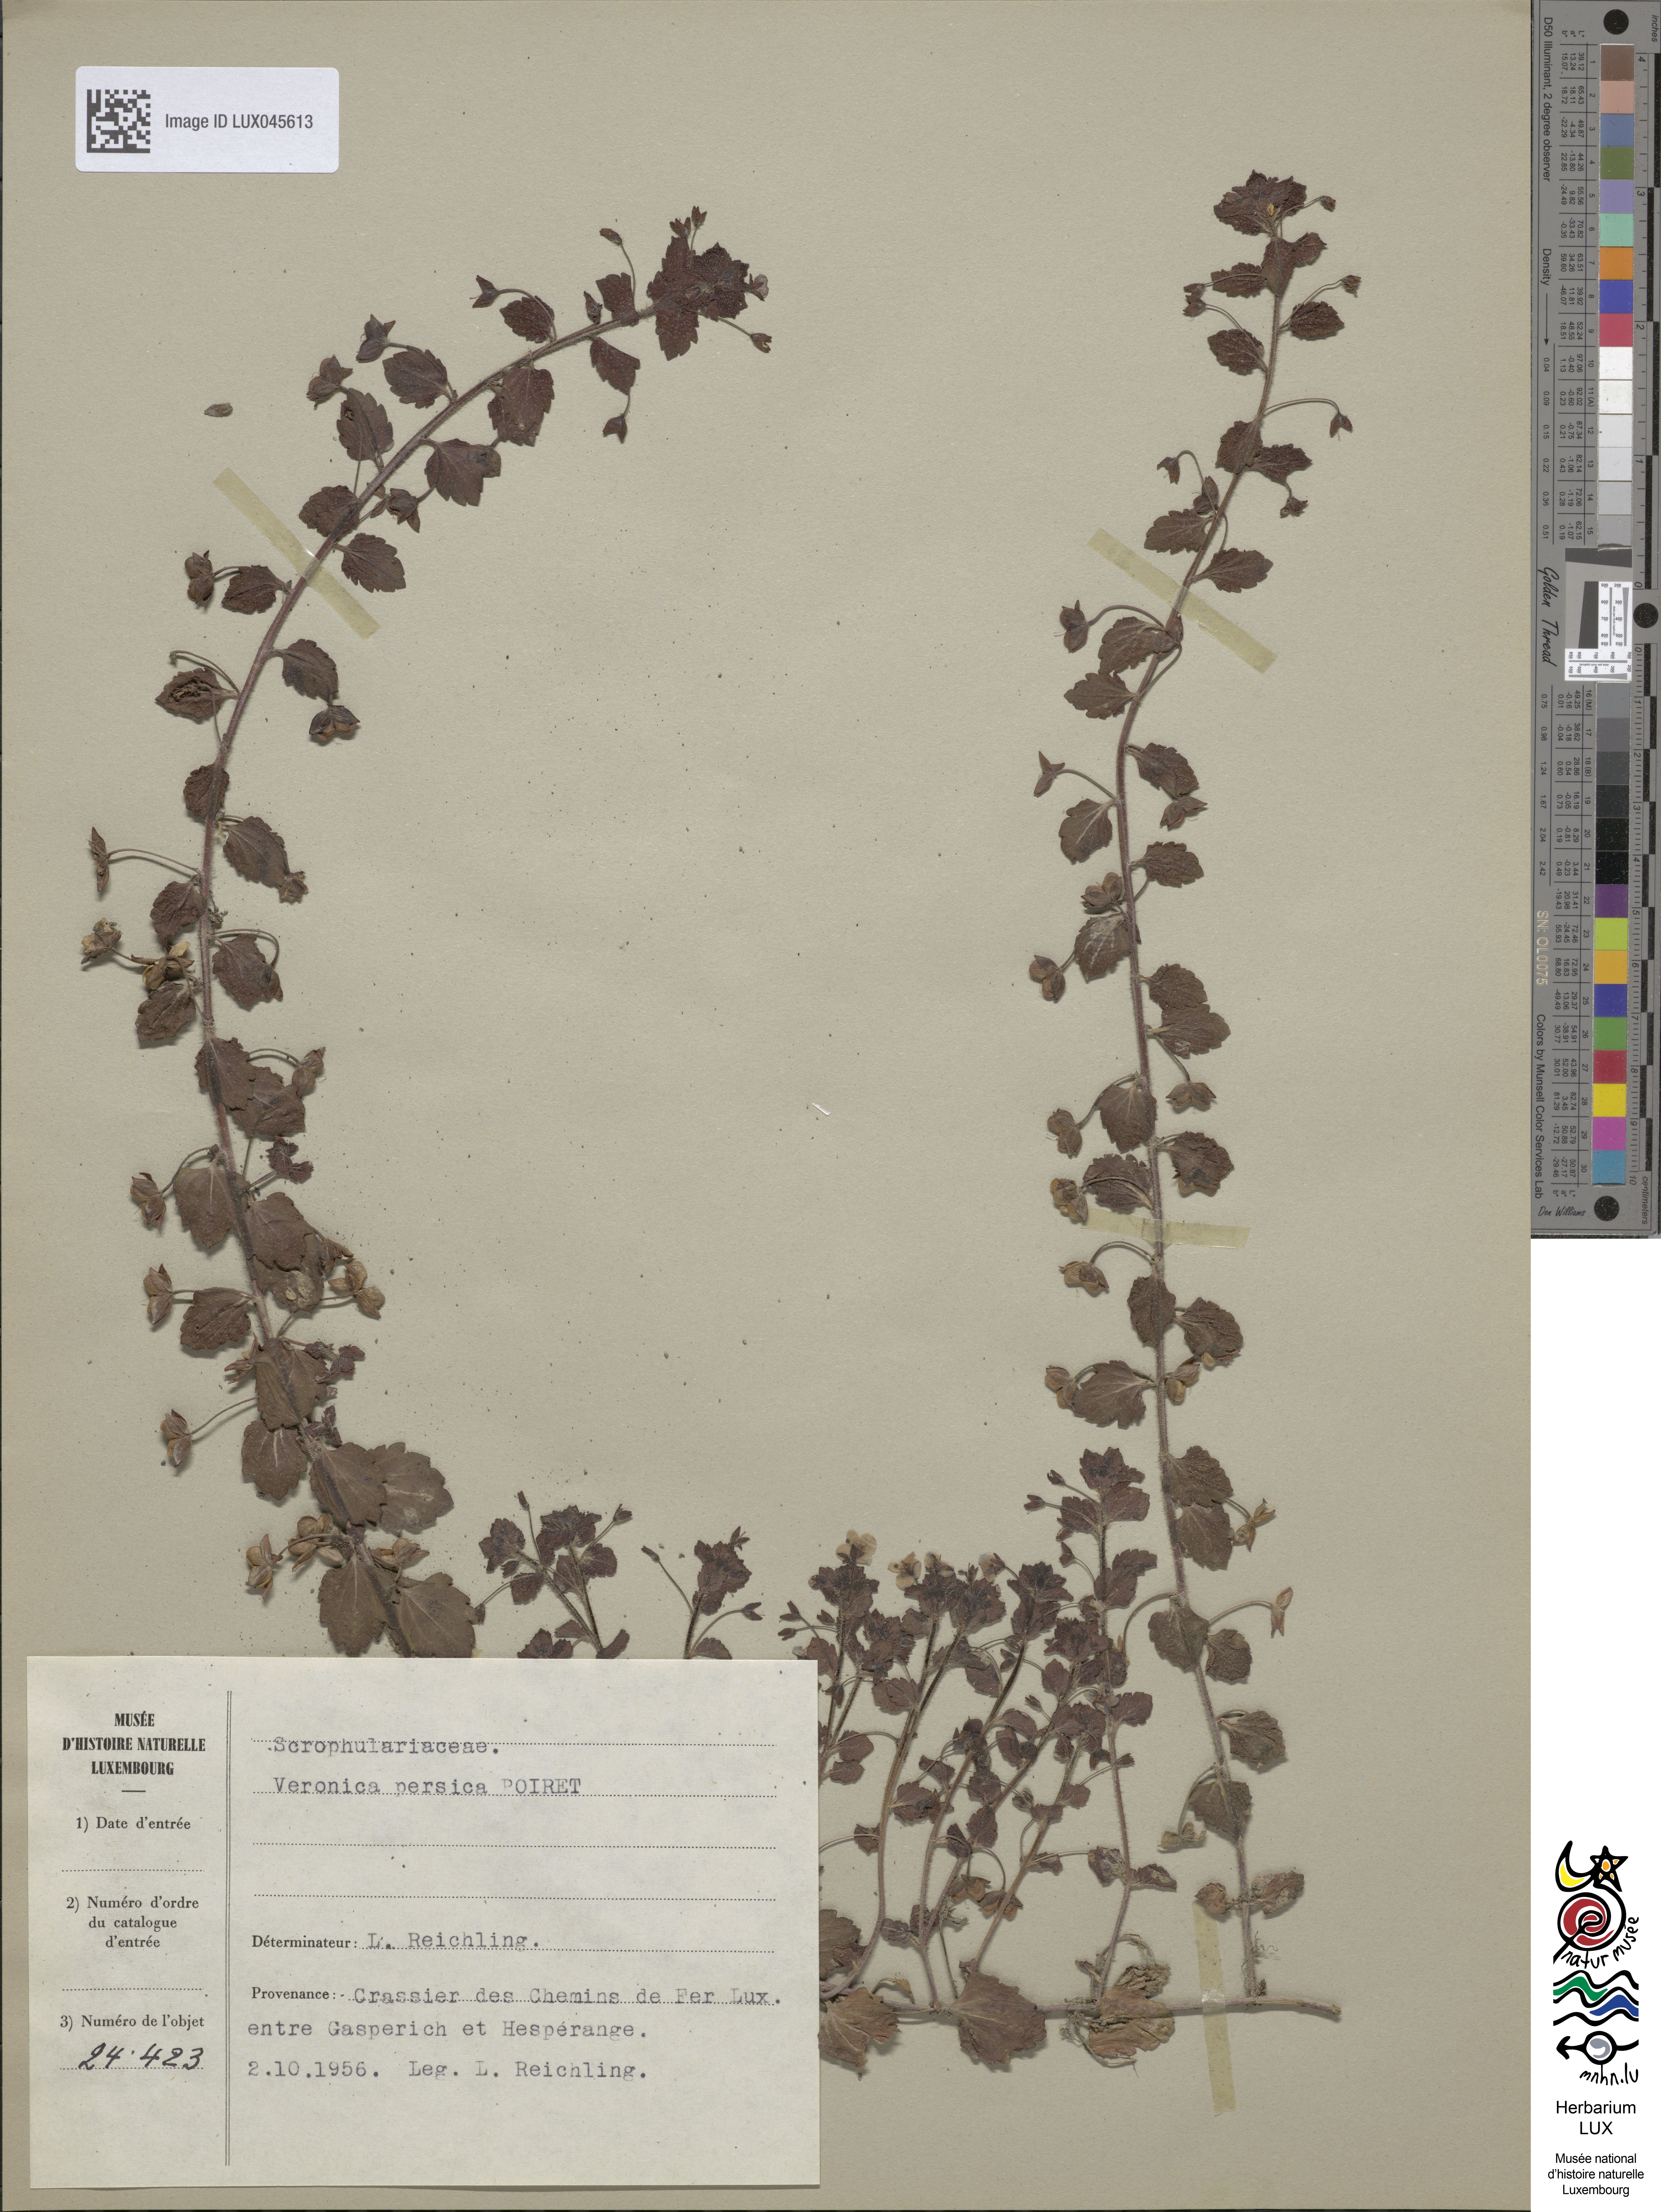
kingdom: Plantae
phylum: Tracheophyta
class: Magnoliopsida
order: Lamiales
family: Plantaginaceae
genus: Veronica
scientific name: Veronica persica
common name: Common field-speedwell
